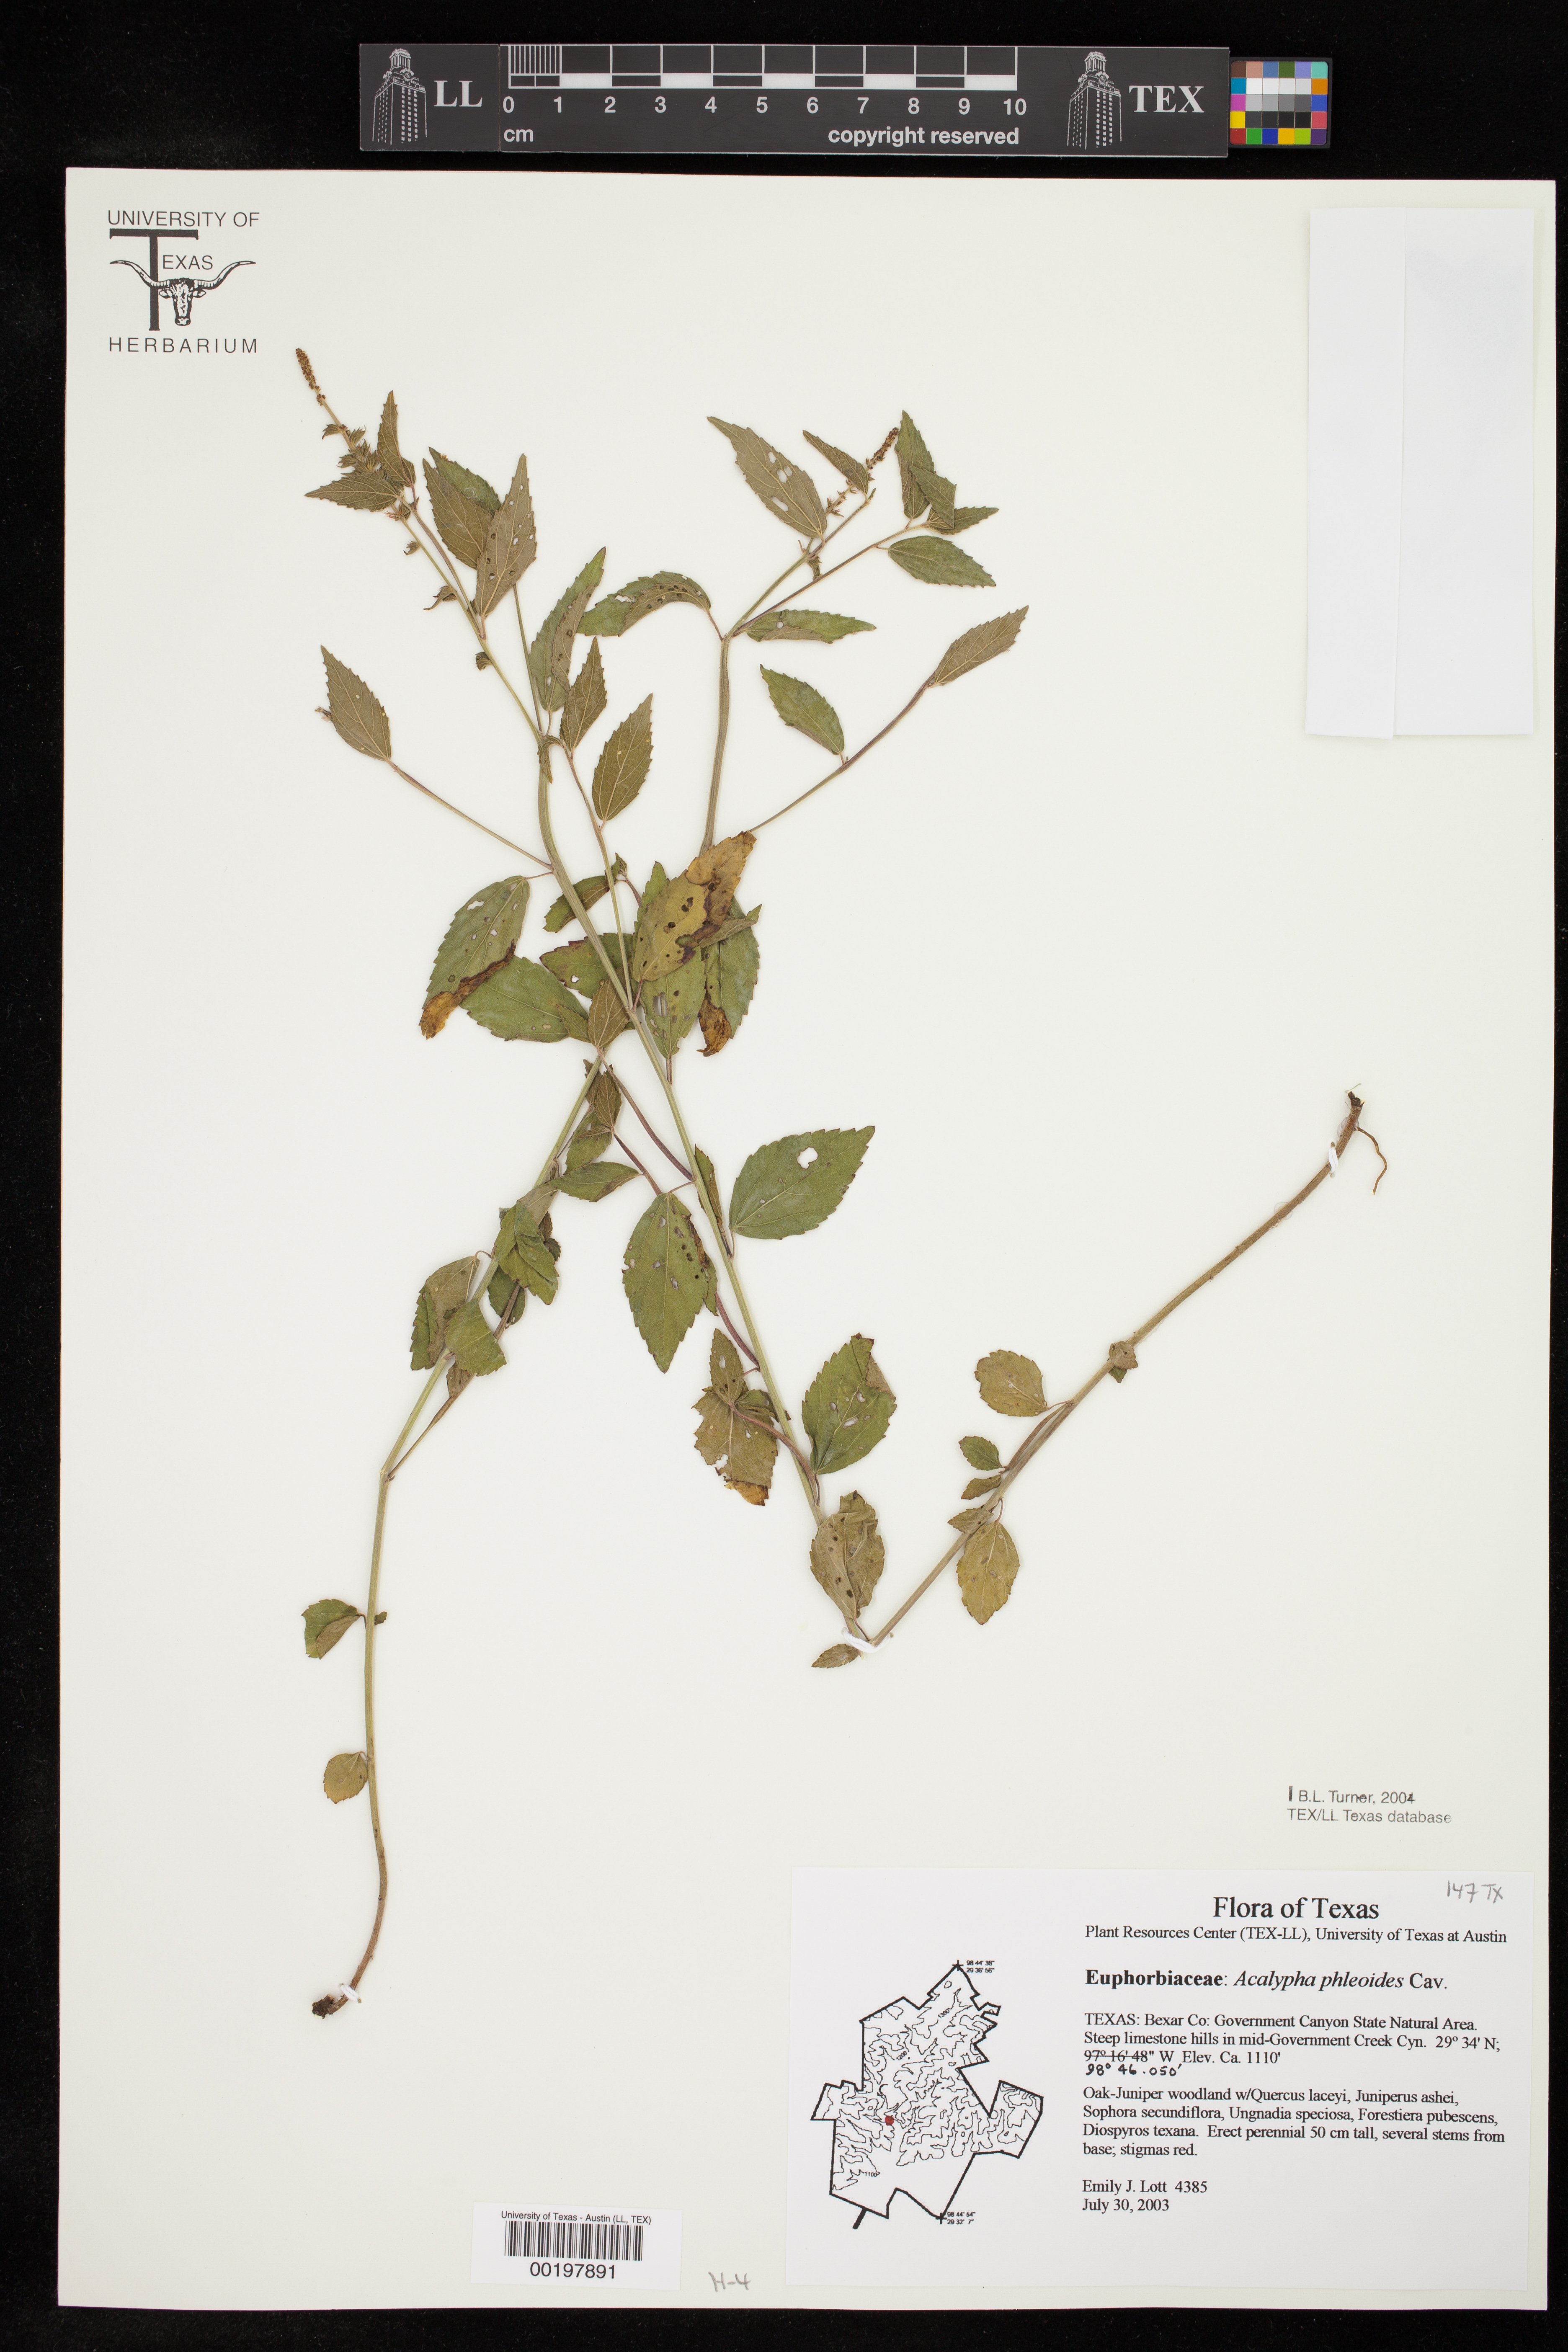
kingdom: Plantae
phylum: Tracheophyta
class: Magnoliopsida
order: Malpighiales
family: Euphorbiaceae
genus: Acalypha
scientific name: Acalypha phleoides
